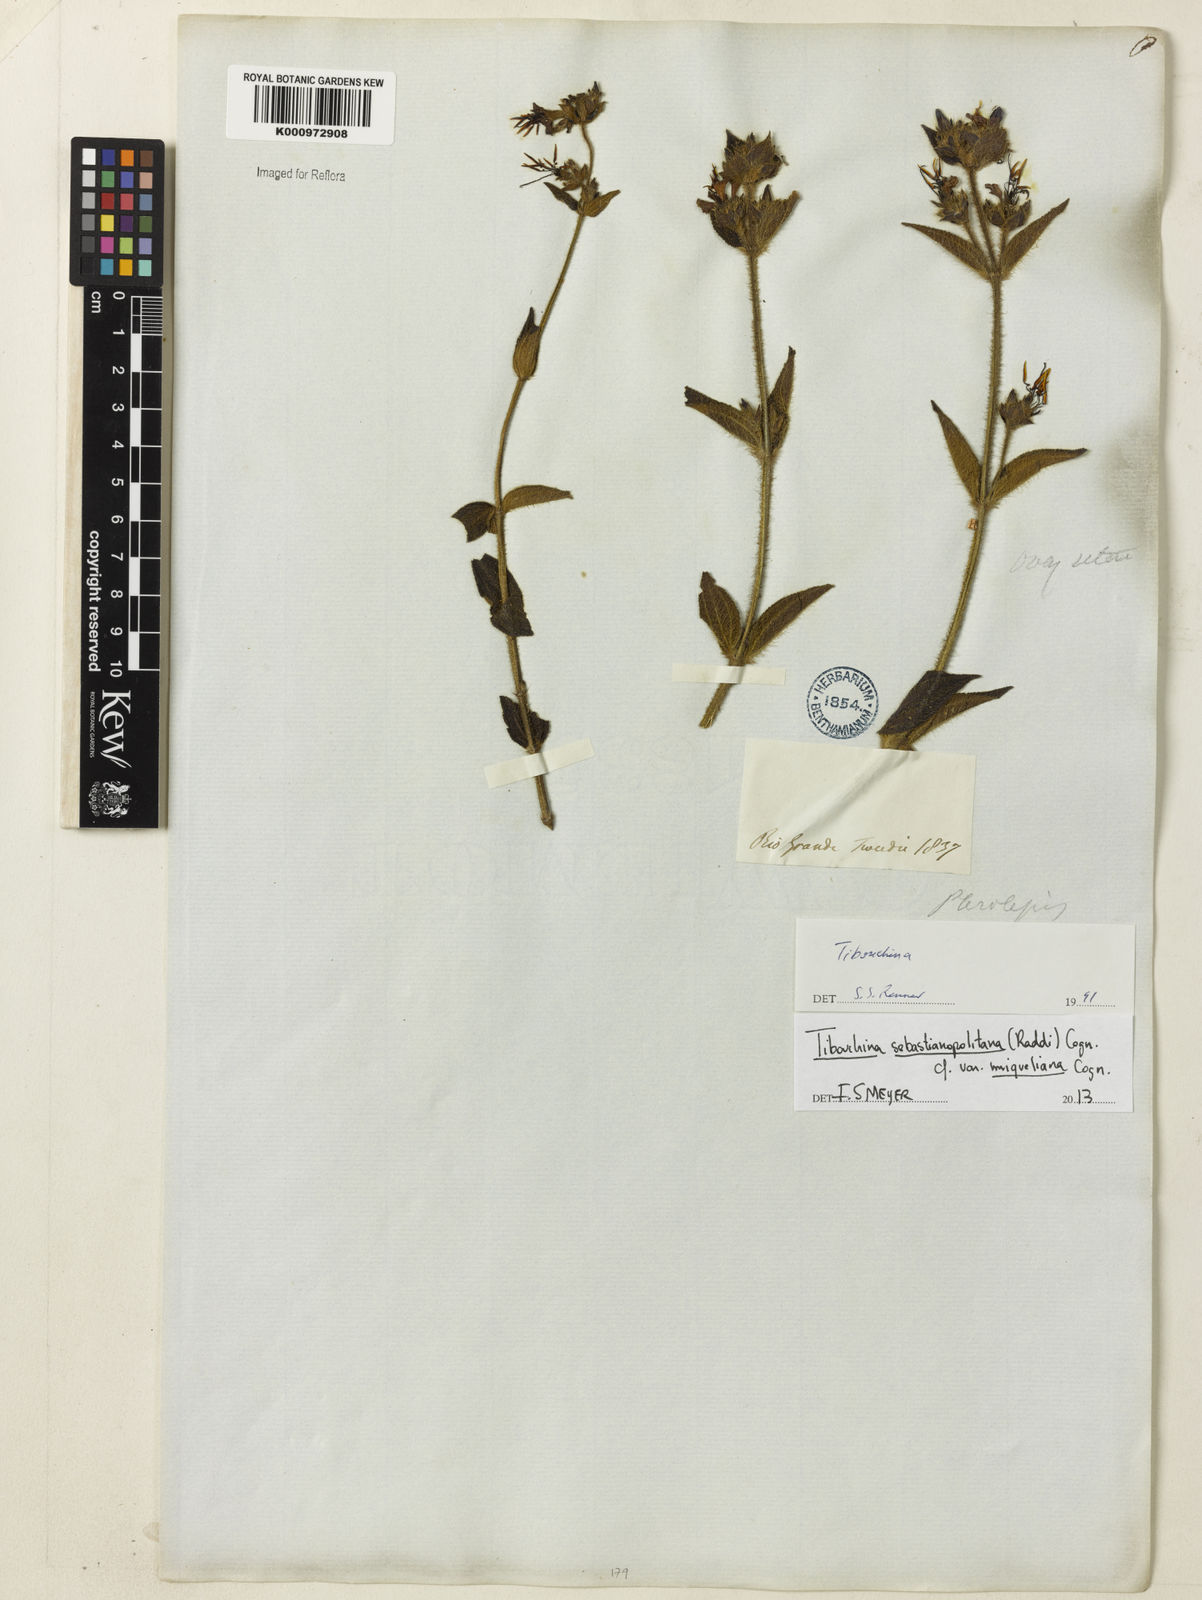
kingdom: Plantae
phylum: Tracheophyta
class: Magnoliopsida
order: Myrtales
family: Melastomataceae
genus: Chaetogastra
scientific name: Chaetogastra sebastianopolitana
